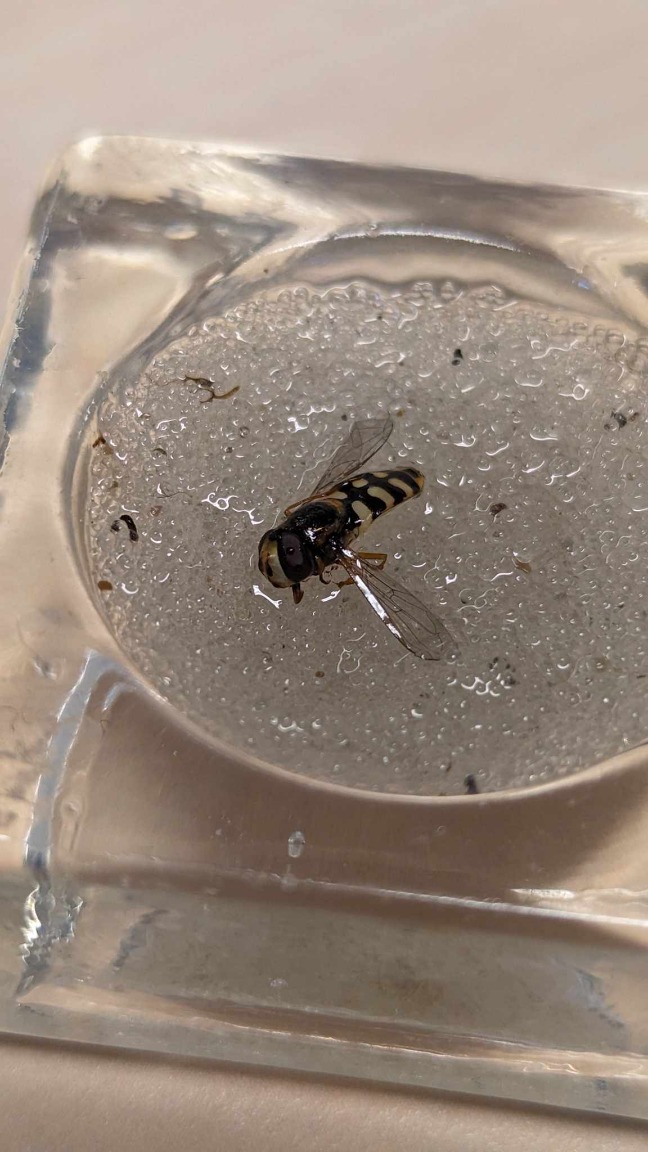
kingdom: Animalia
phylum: Arthropoda
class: Insecta
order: Diptera
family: Syrphidae
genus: Eupeodes
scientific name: Eupeodes corollae
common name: Almindelig marksvirreflue
